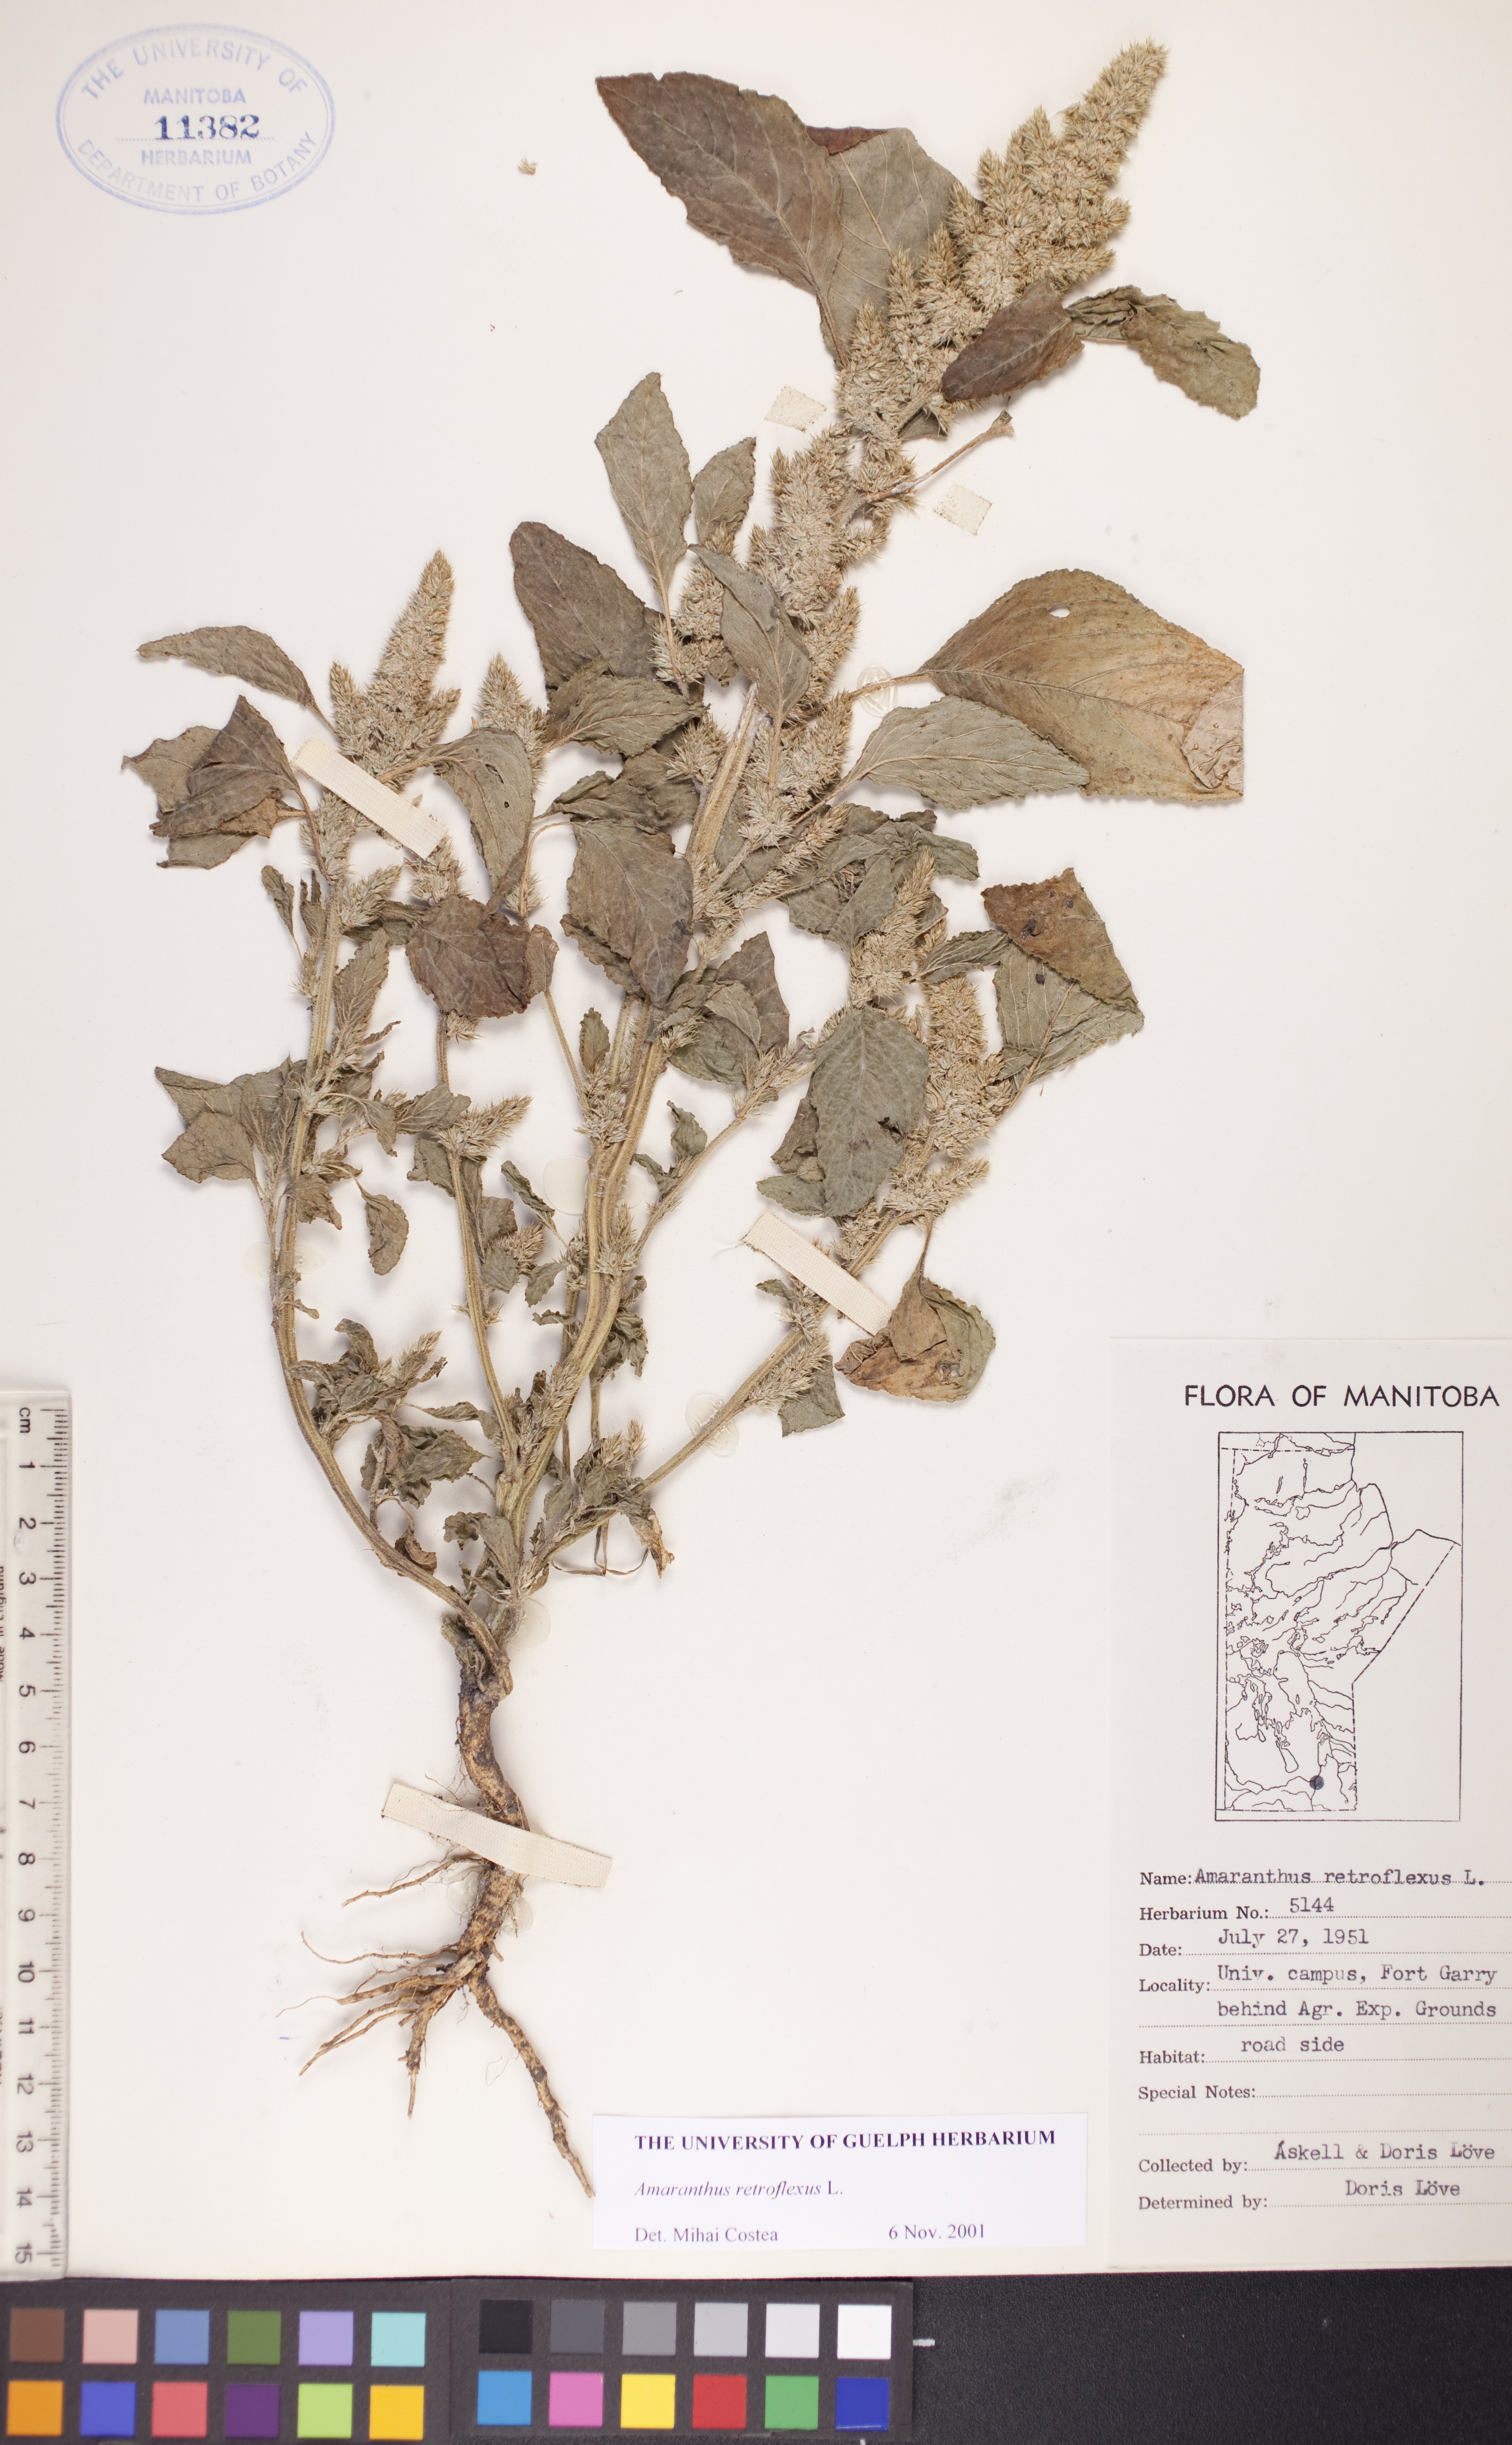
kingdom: Plantae
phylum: Tracheophyta
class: Magnoliopsida
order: Caryophyllales
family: Amaranthaceae
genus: Amaranthus
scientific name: Amaranthus retroflexus
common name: Redroot amaranth
